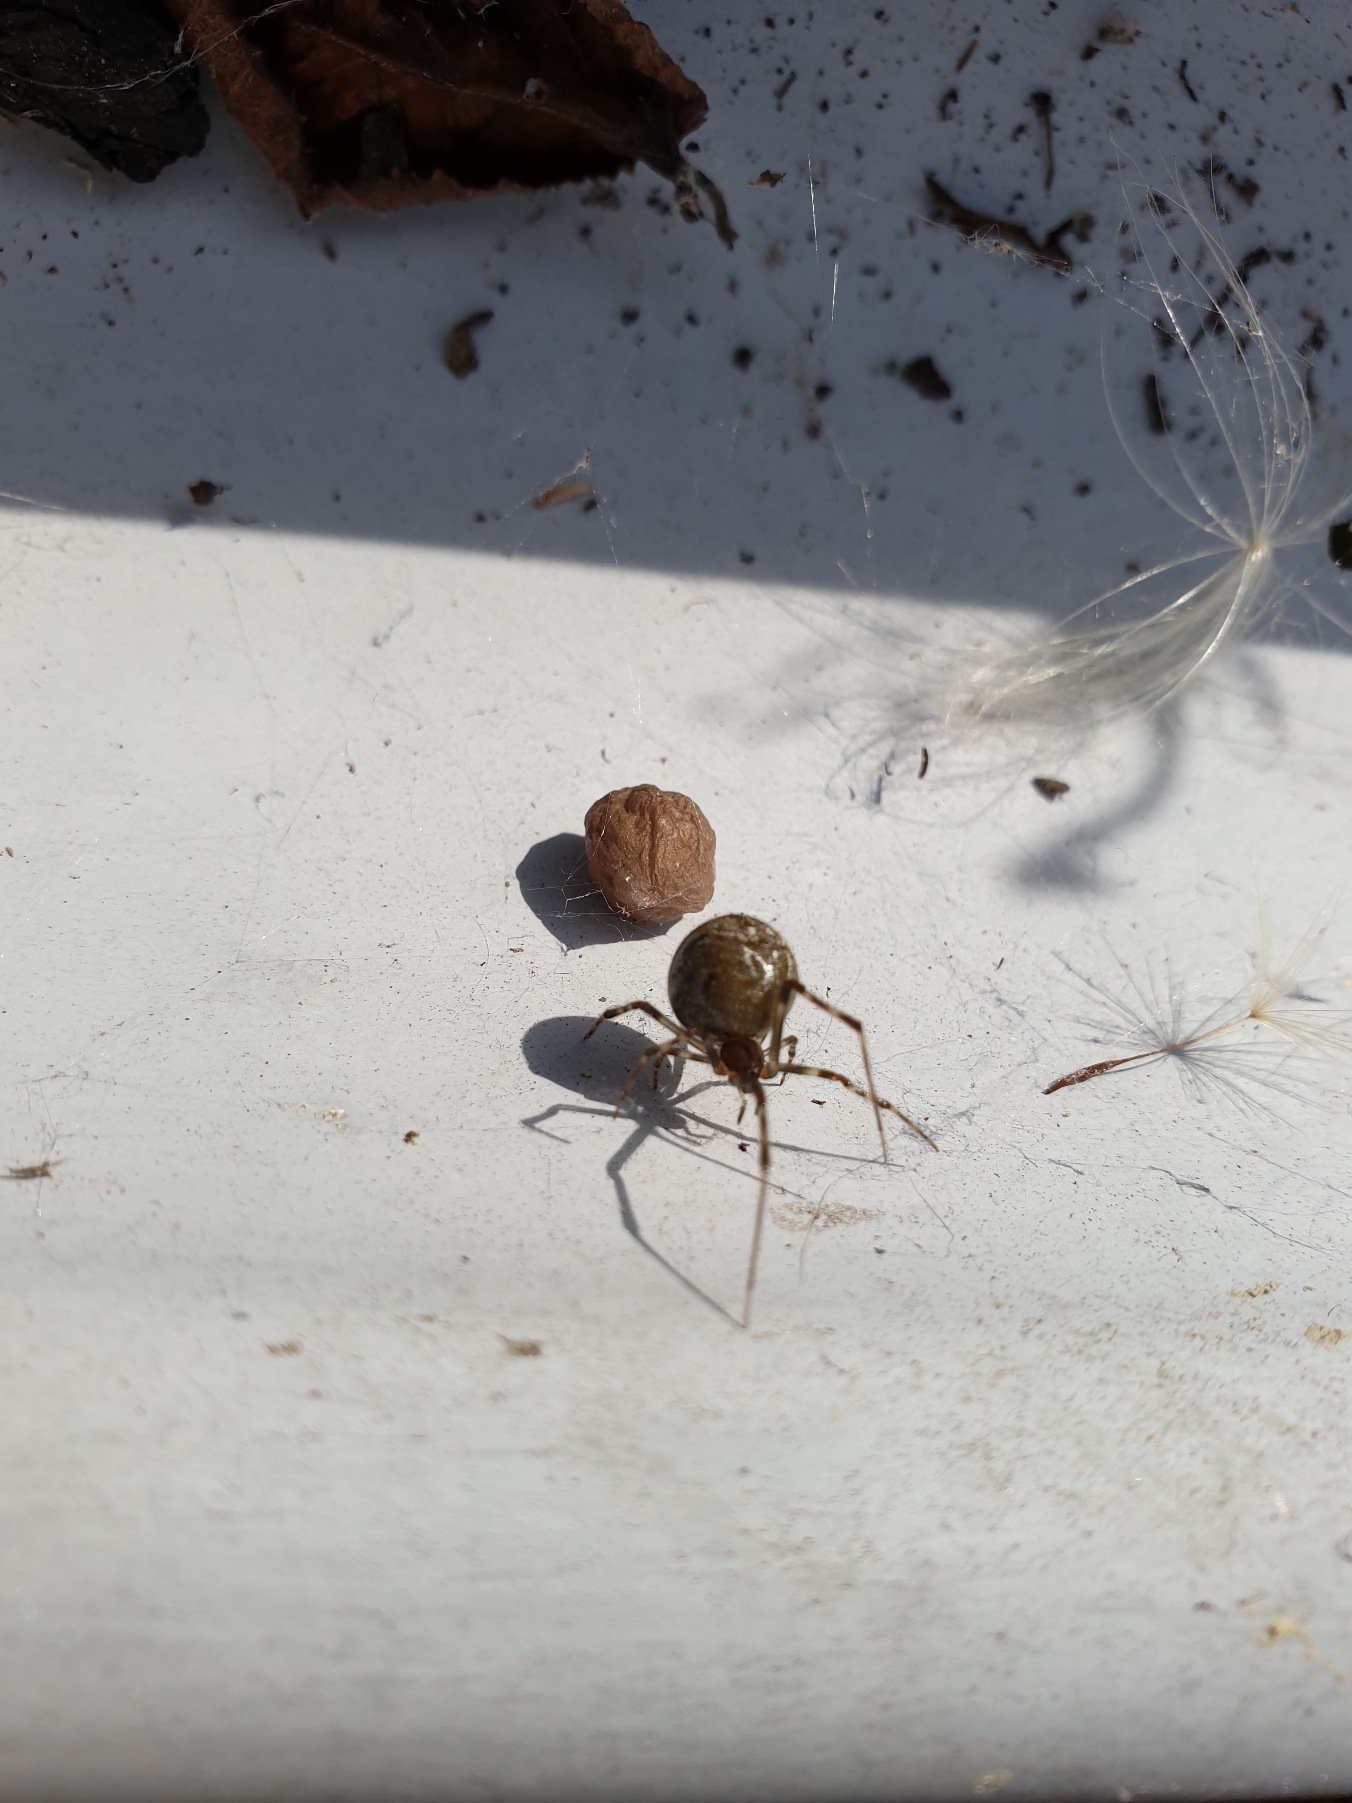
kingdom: Animalia
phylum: Arthropoda
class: Arachnida
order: Araneae
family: Theridiidae
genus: Parasteatoda
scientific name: Parasteatoda tepidariorum
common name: Væksthusspinder
